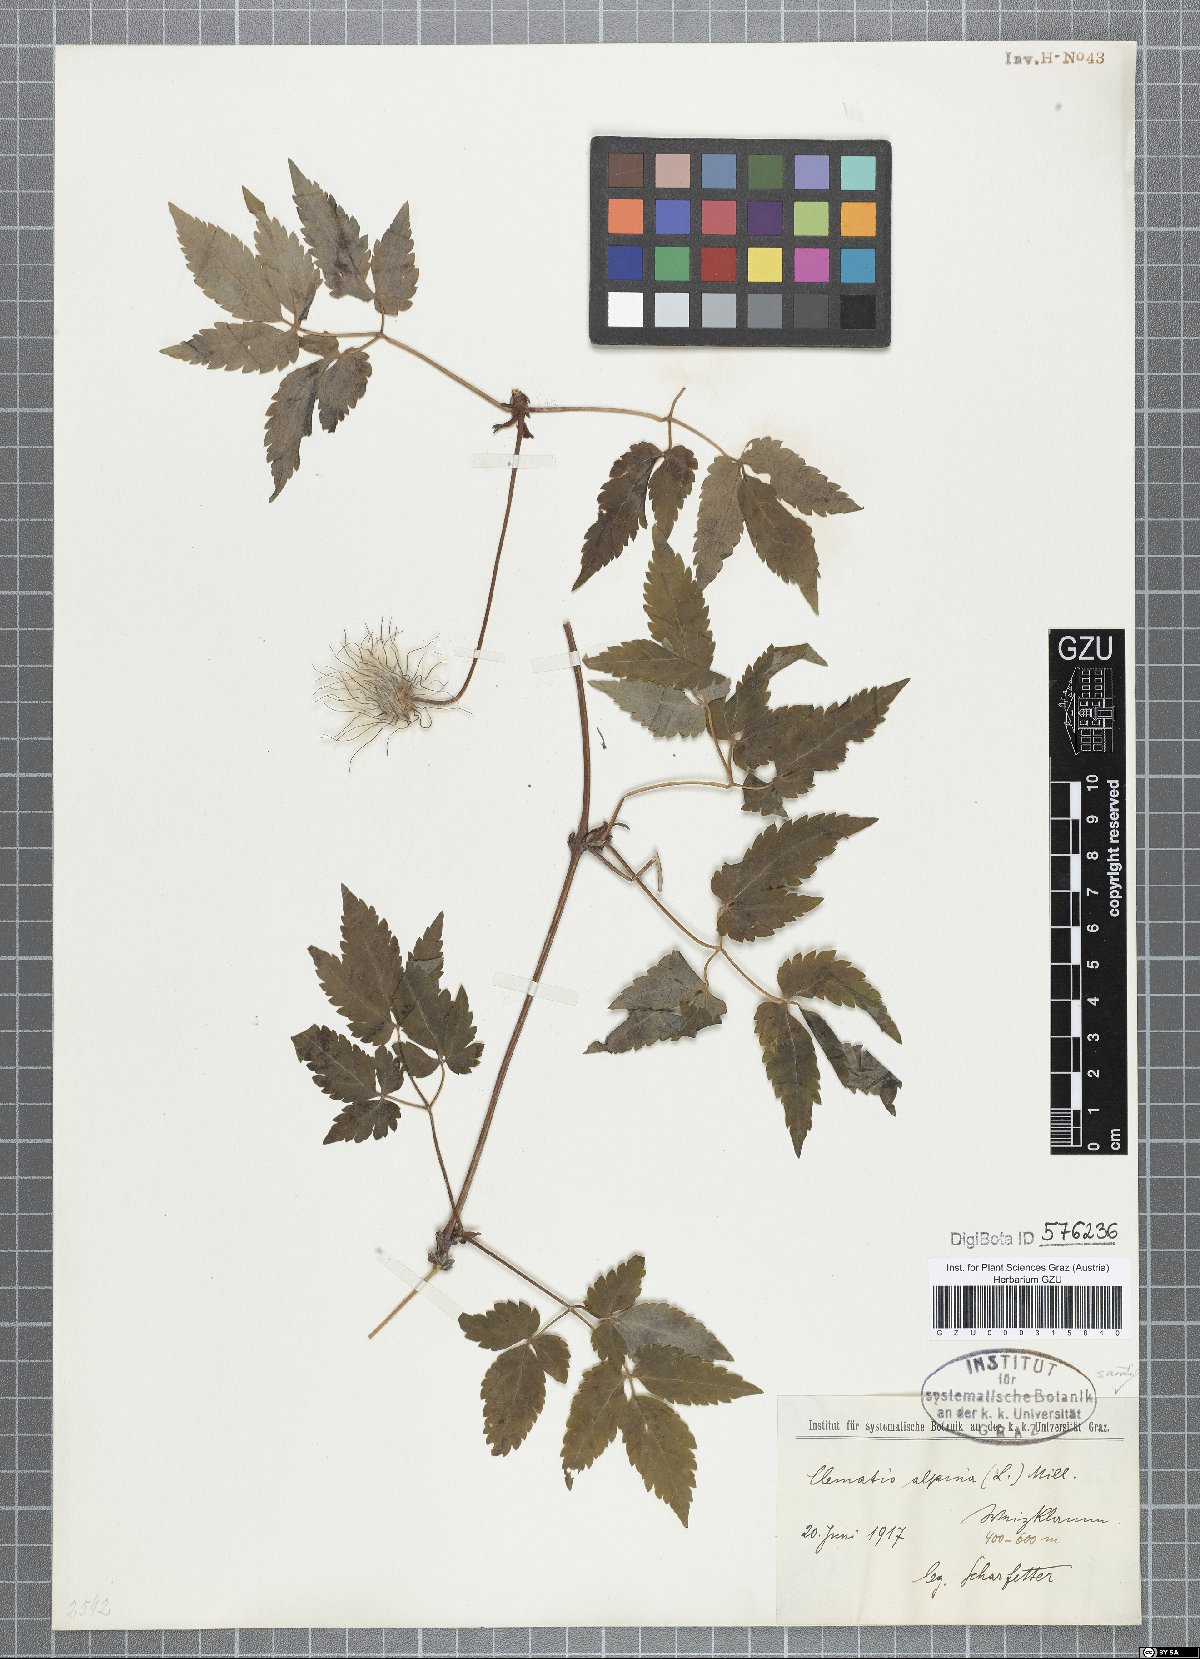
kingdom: Plantae
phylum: Tracheophyta
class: Magnoliopsida
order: Ranunculales
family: Ranunculaceae
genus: Clematis
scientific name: Clematis alpina
